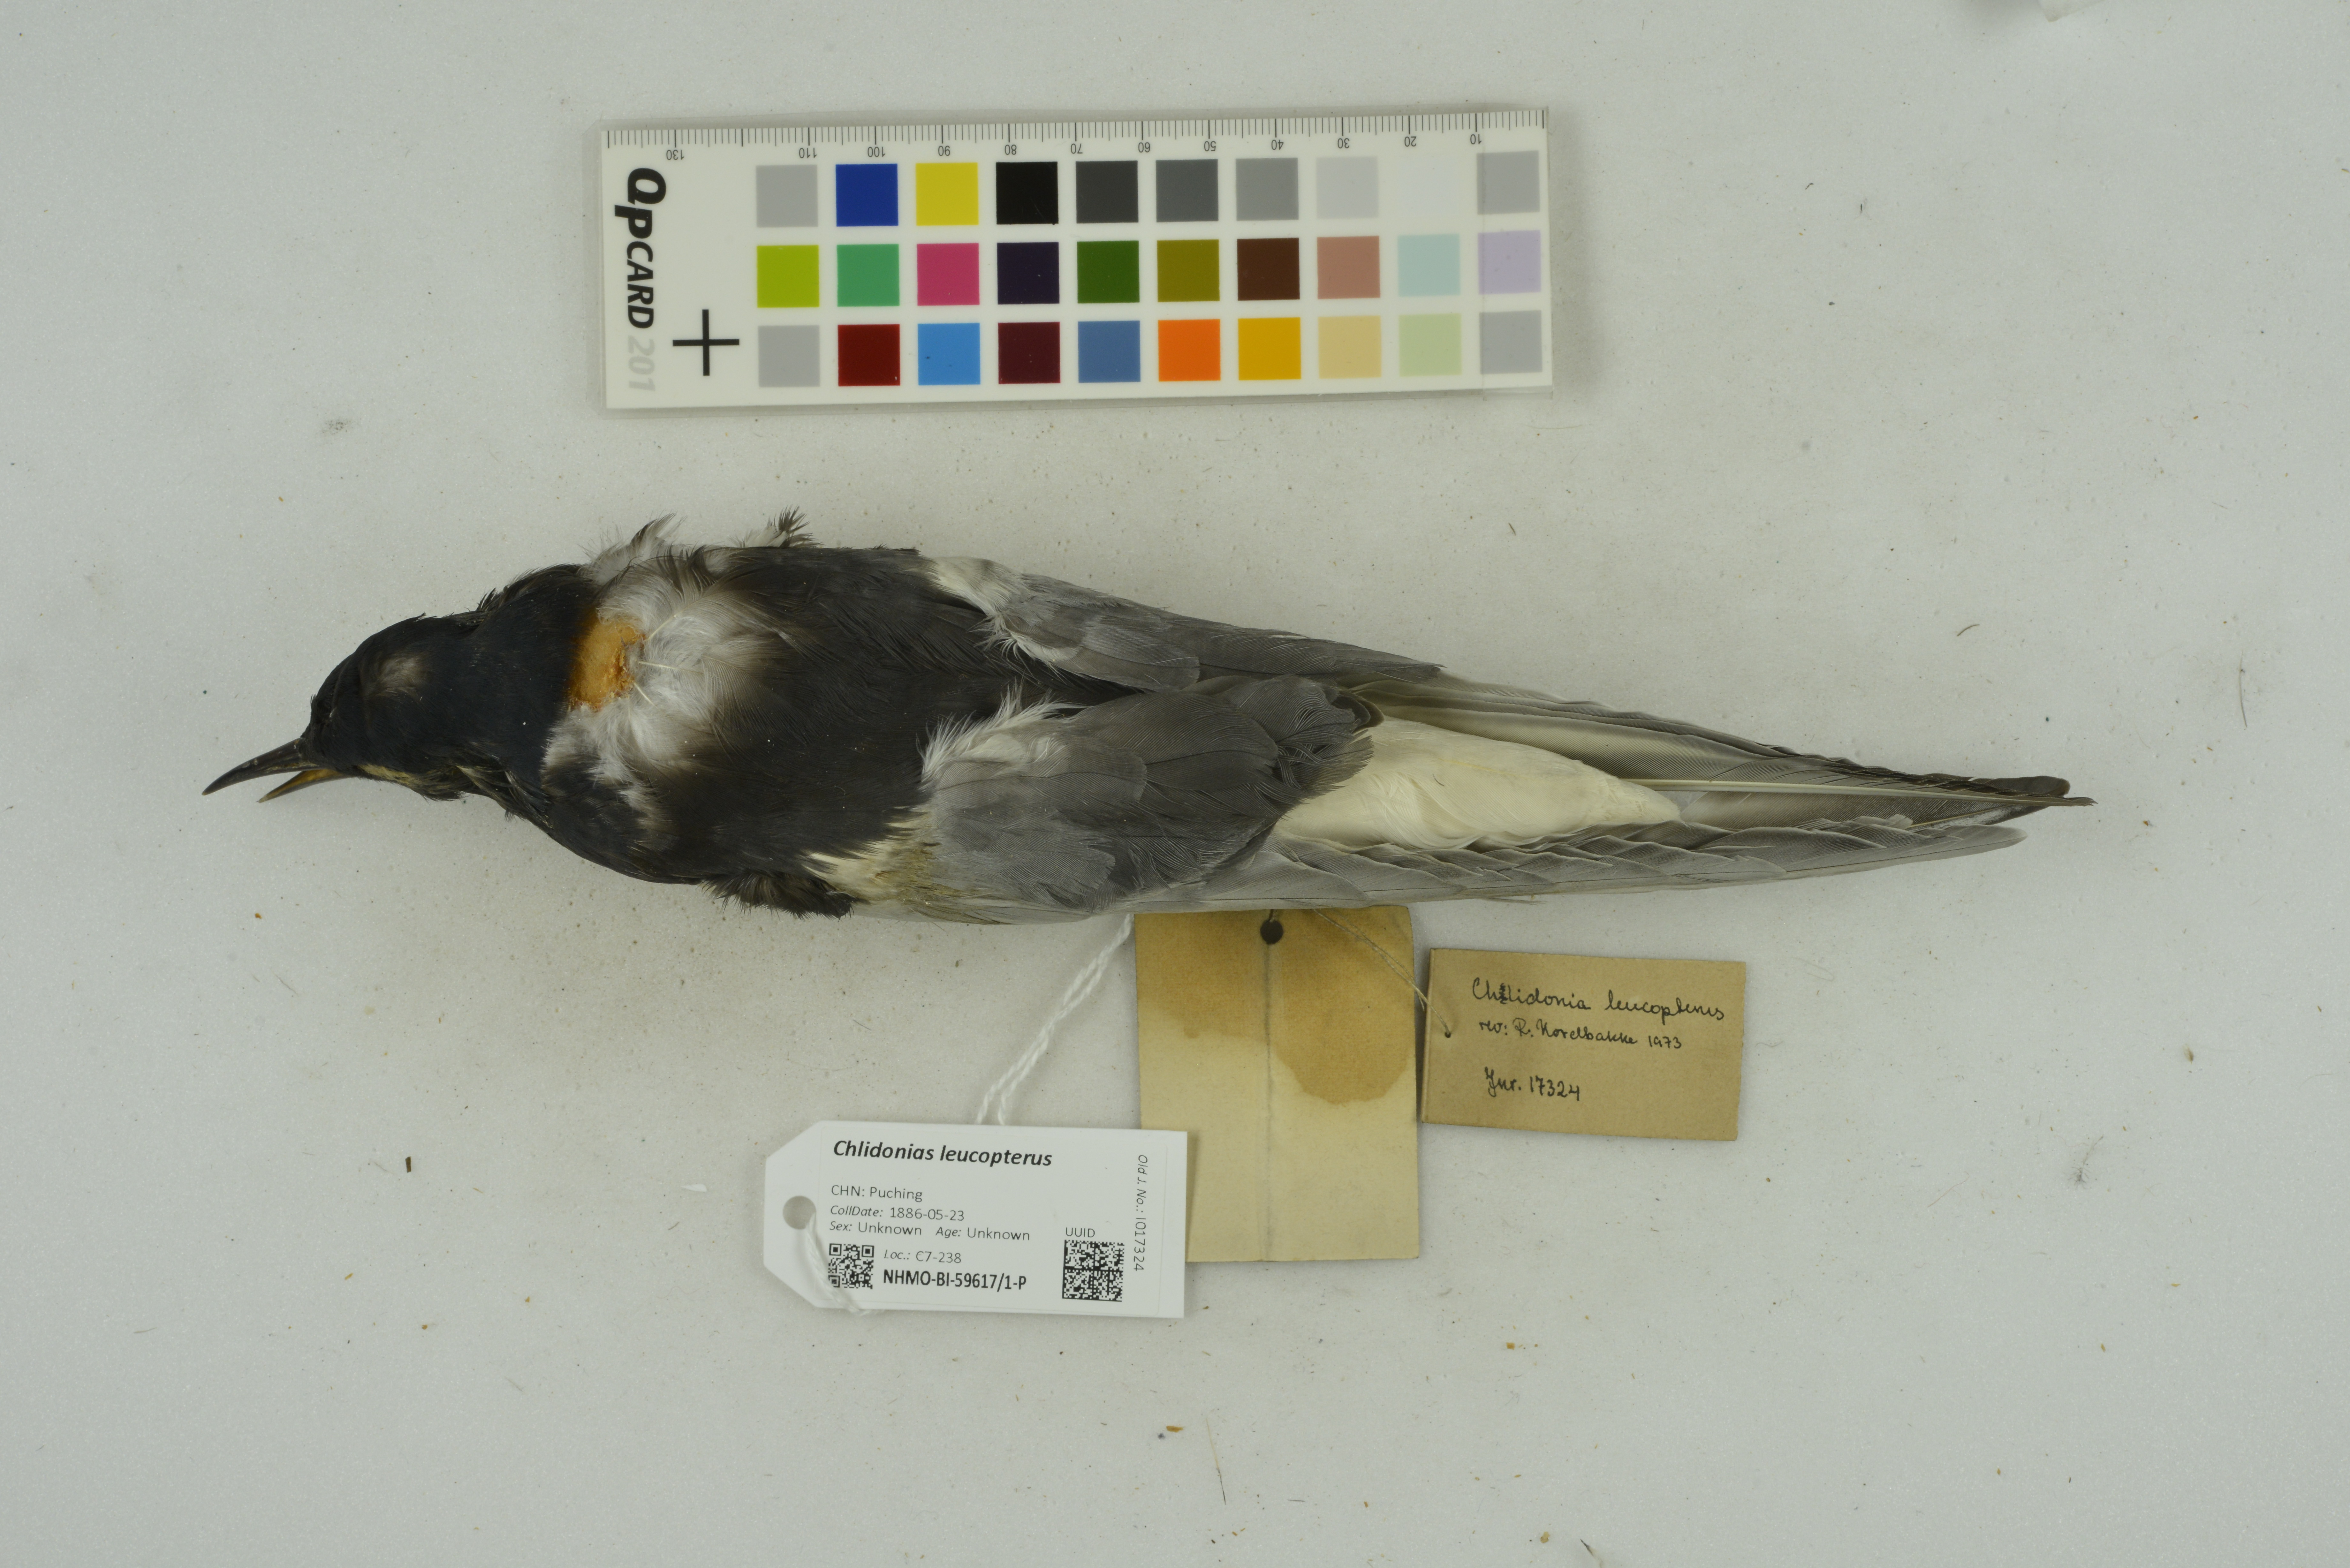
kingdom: Animalia
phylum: Chordata
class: Aves
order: Charadriiformes
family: Laridae
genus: Chlidonias
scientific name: Chlidonias leucopterus
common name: White-winged tern
